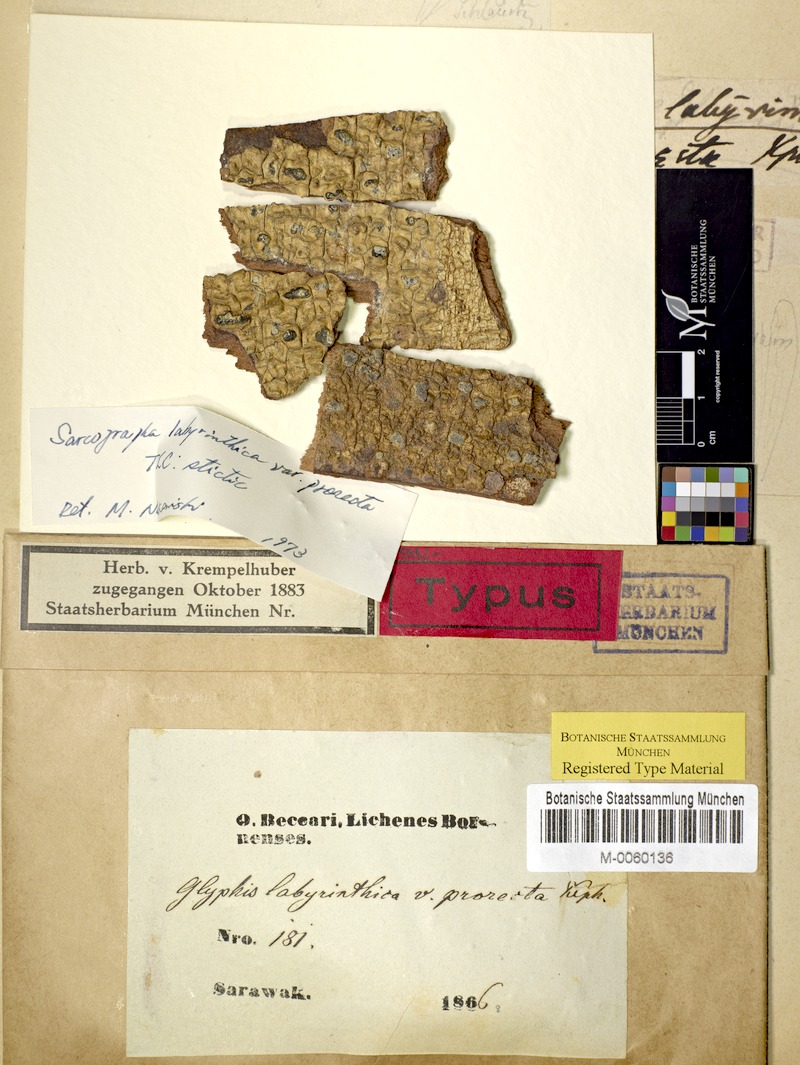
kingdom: Fungi
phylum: Ascomycota
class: Lecanoromycetes
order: Ostropales
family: Graphidaceae
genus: Sarcographa
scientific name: Sarcographa
